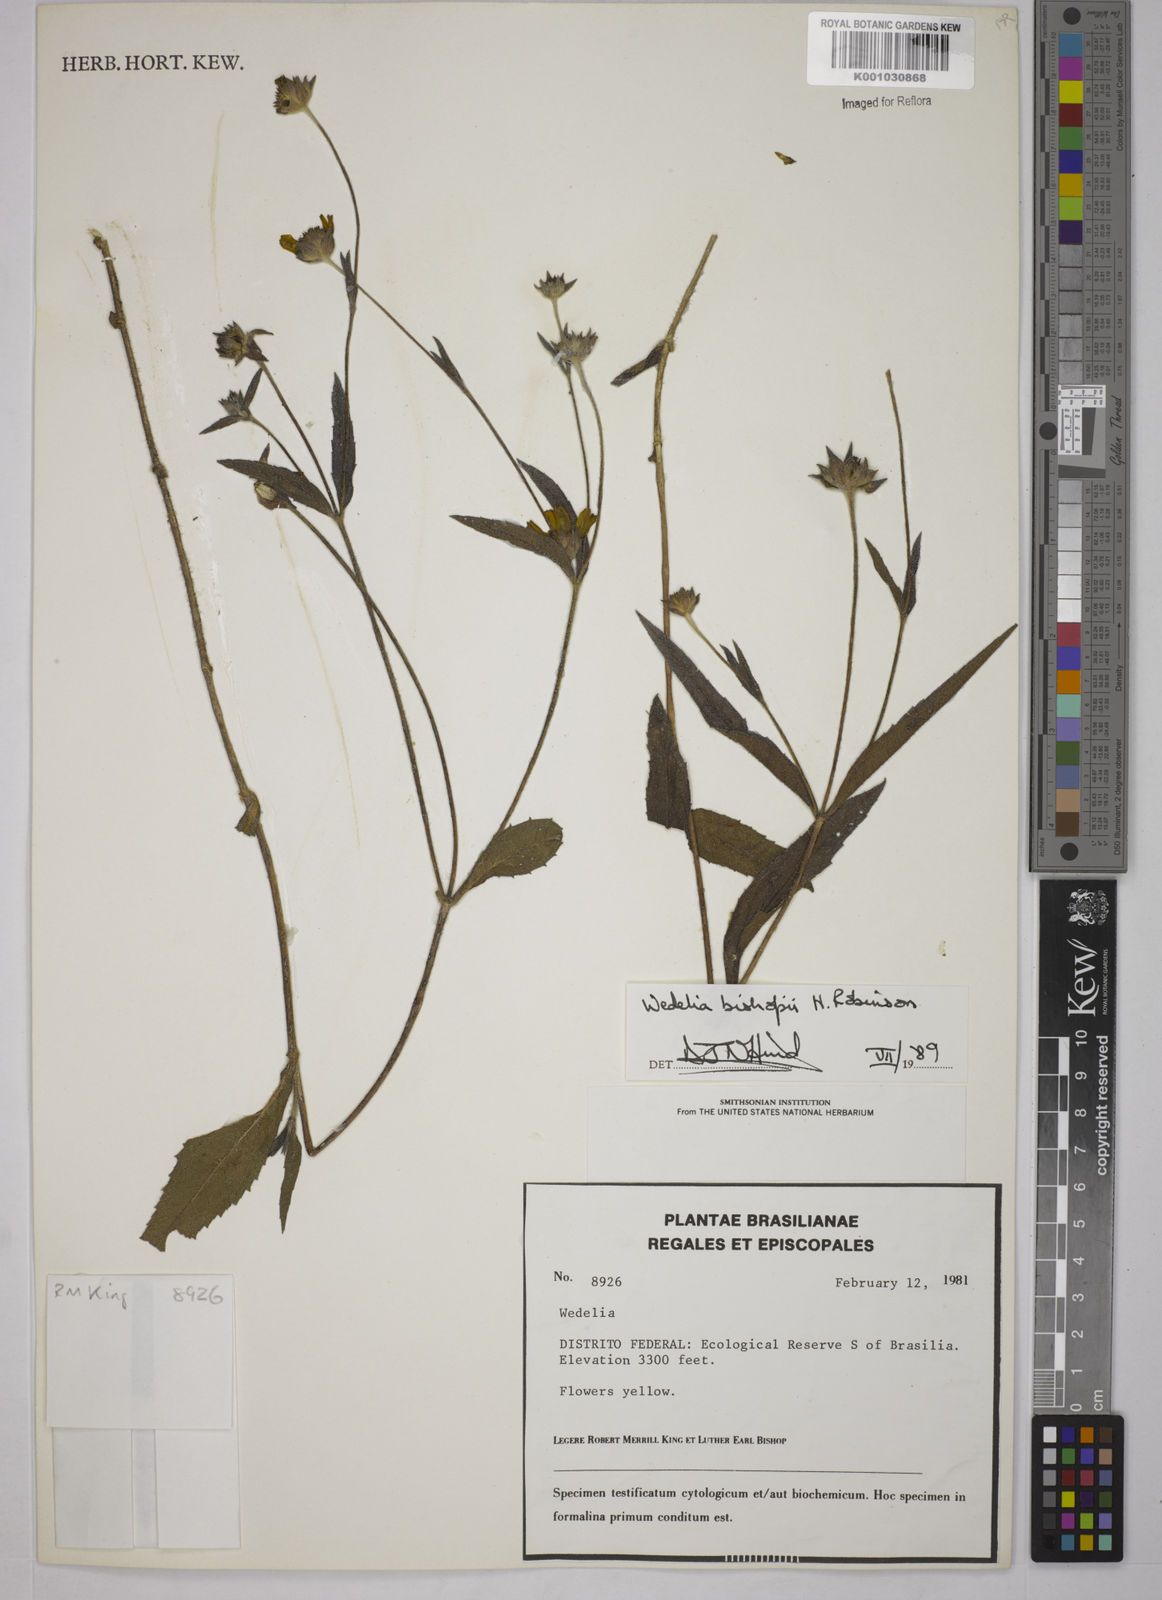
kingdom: Plantae
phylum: Tracheophyta
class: Magnoliopsida
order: Asterales
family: Asteraceae
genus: Wedelia
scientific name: Wedelia bishopii
